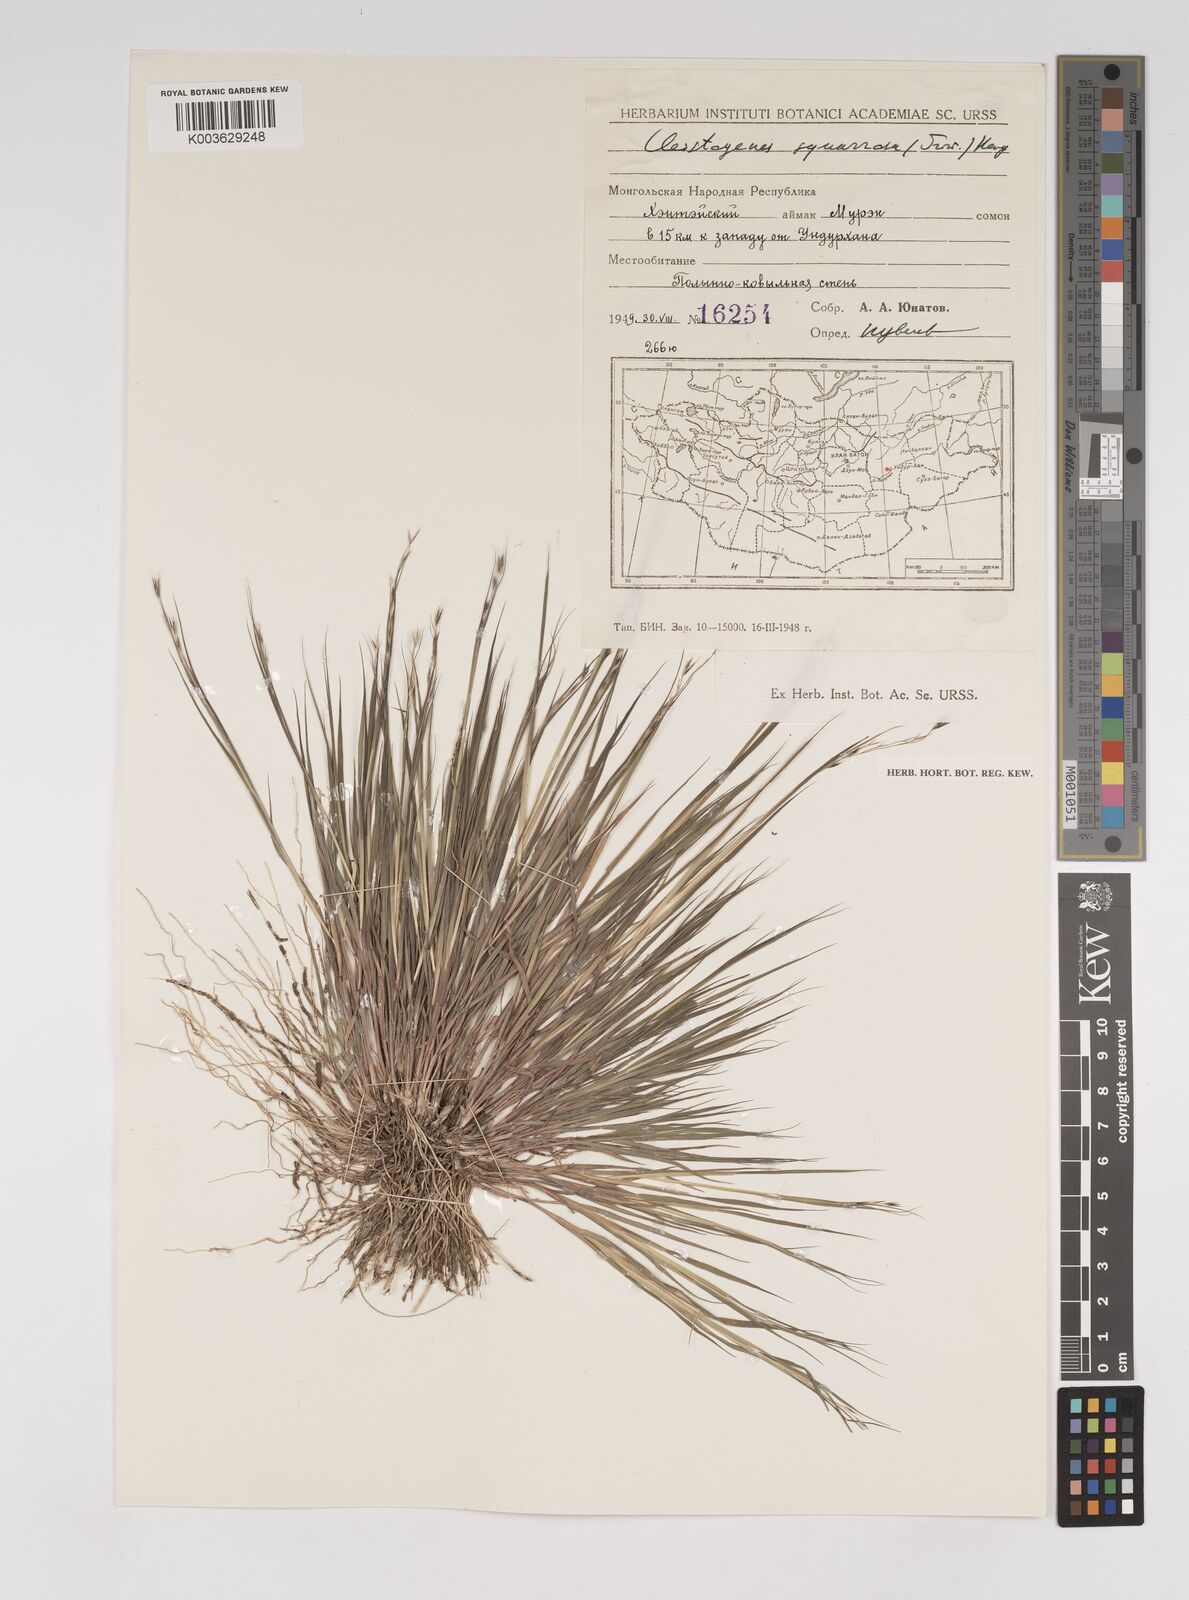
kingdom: Plantae
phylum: Tracheophyta
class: Liliopsida
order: Poales
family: Poaceae
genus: Cleistogenes
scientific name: Cleistogenes squarrosa
